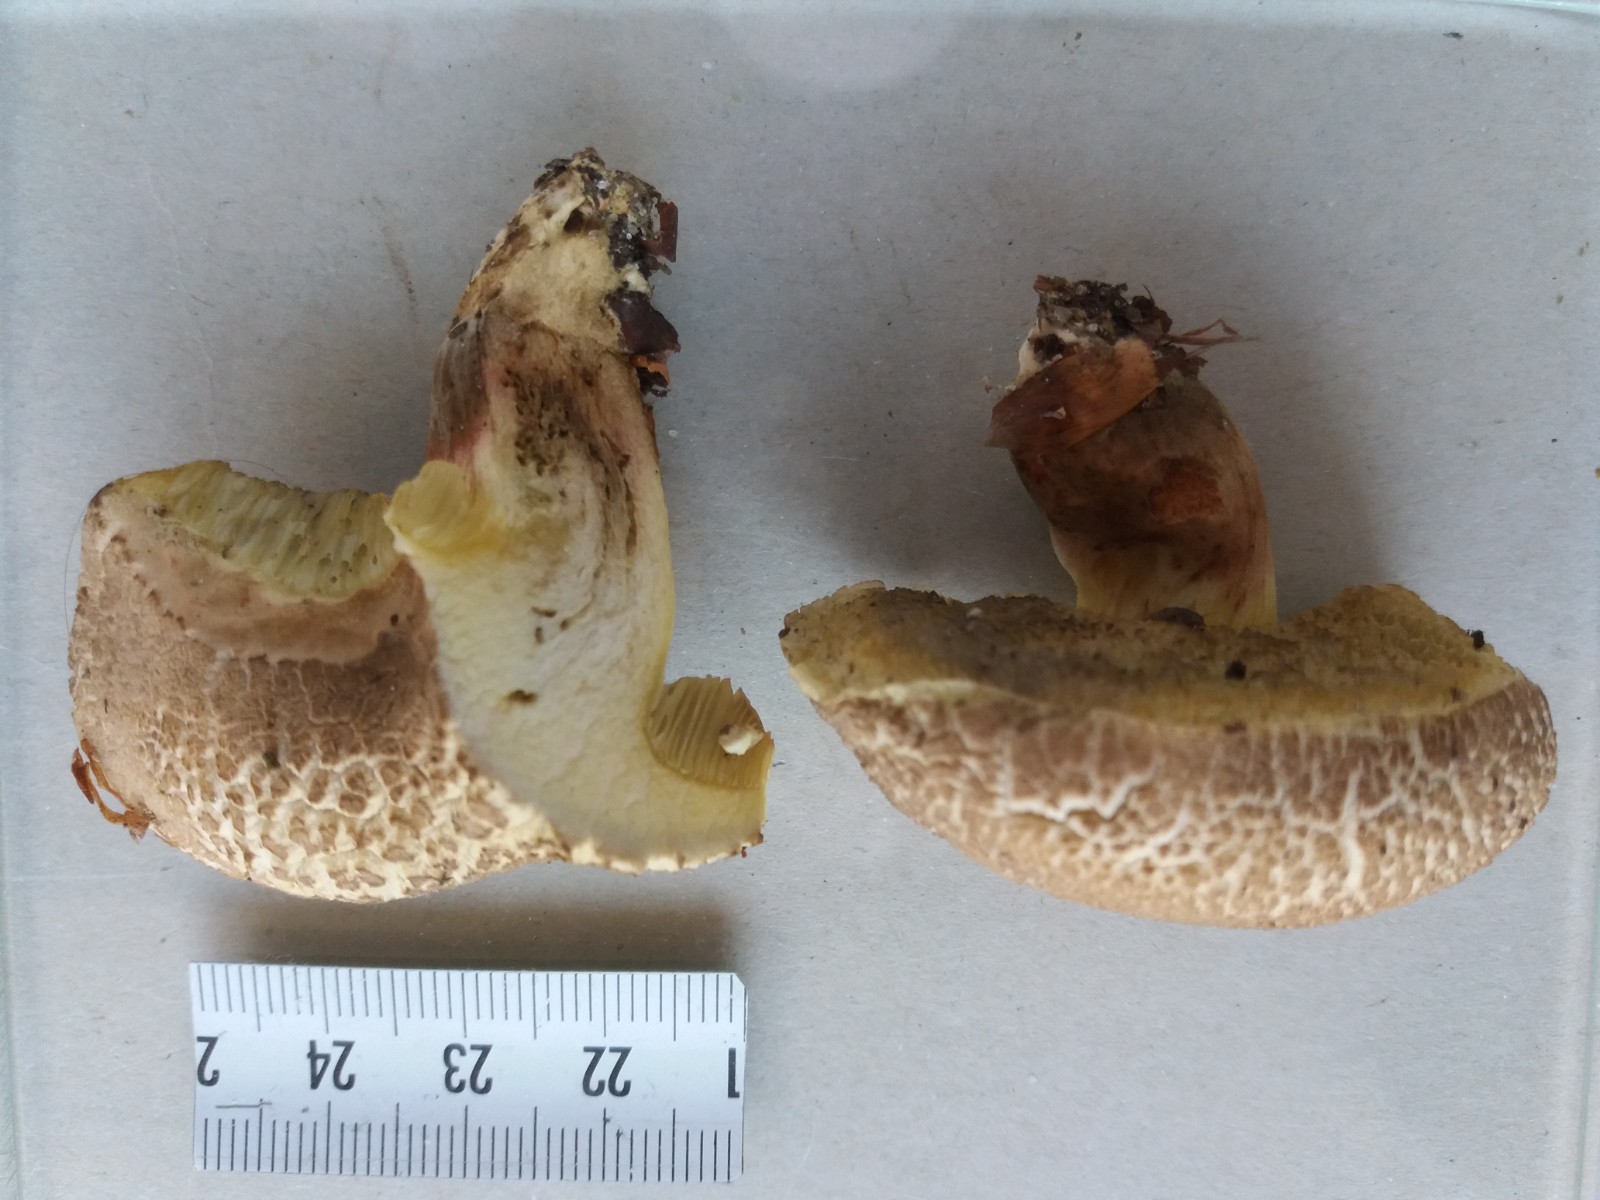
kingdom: Fungi
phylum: Basidiomycota
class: Agaricomycetes
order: Boletales
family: Boletaceae
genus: Xerocomellus
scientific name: Xerocomellus porosporus
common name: hvidsprukken rørhat
